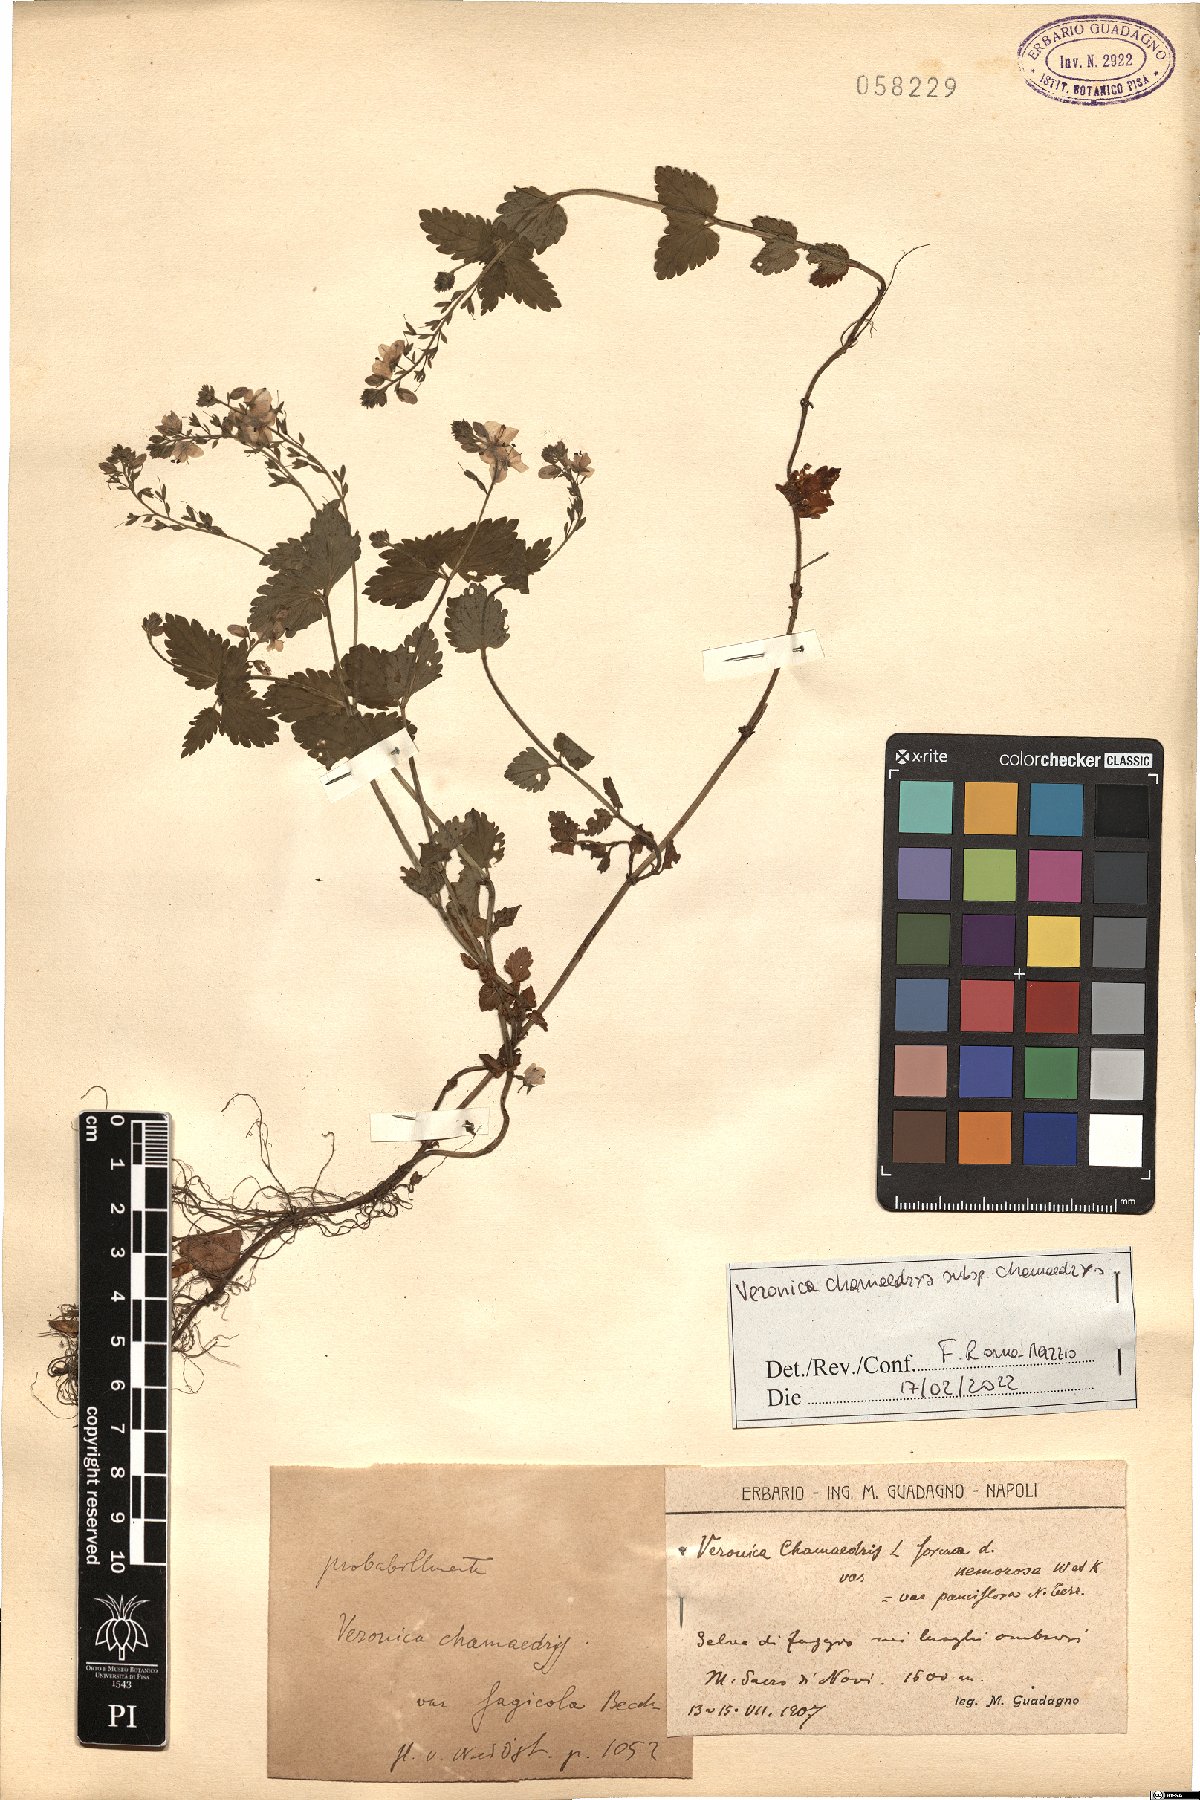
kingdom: Plantae
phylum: Tracheophyta
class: Magnoliopsida
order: Lamiales
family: Plantaginaceae
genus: Veronica
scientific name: Veronica chamaedrys
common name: Germander speedwell
